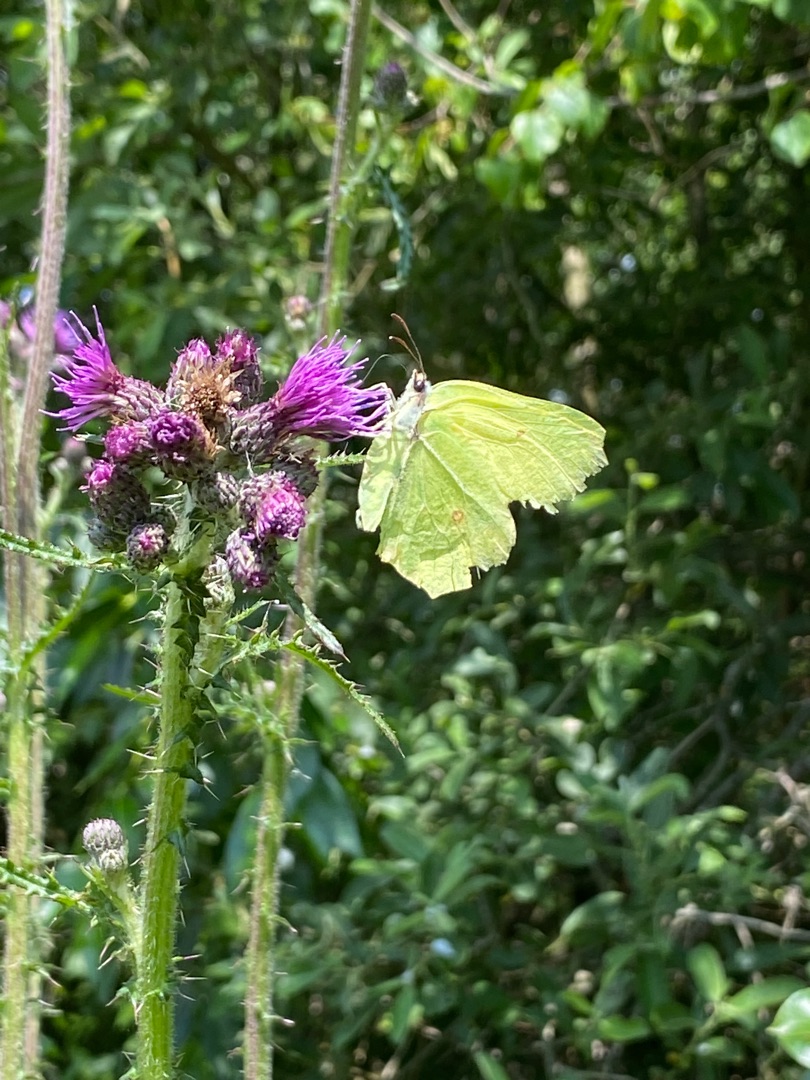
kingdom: Animalia
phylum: Arthropoda
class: Insecta
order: Lepidoptera
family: Pieridae
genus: Gonepteryx
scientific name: Gonepteryx rhamni
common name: Citronsommerfugl
